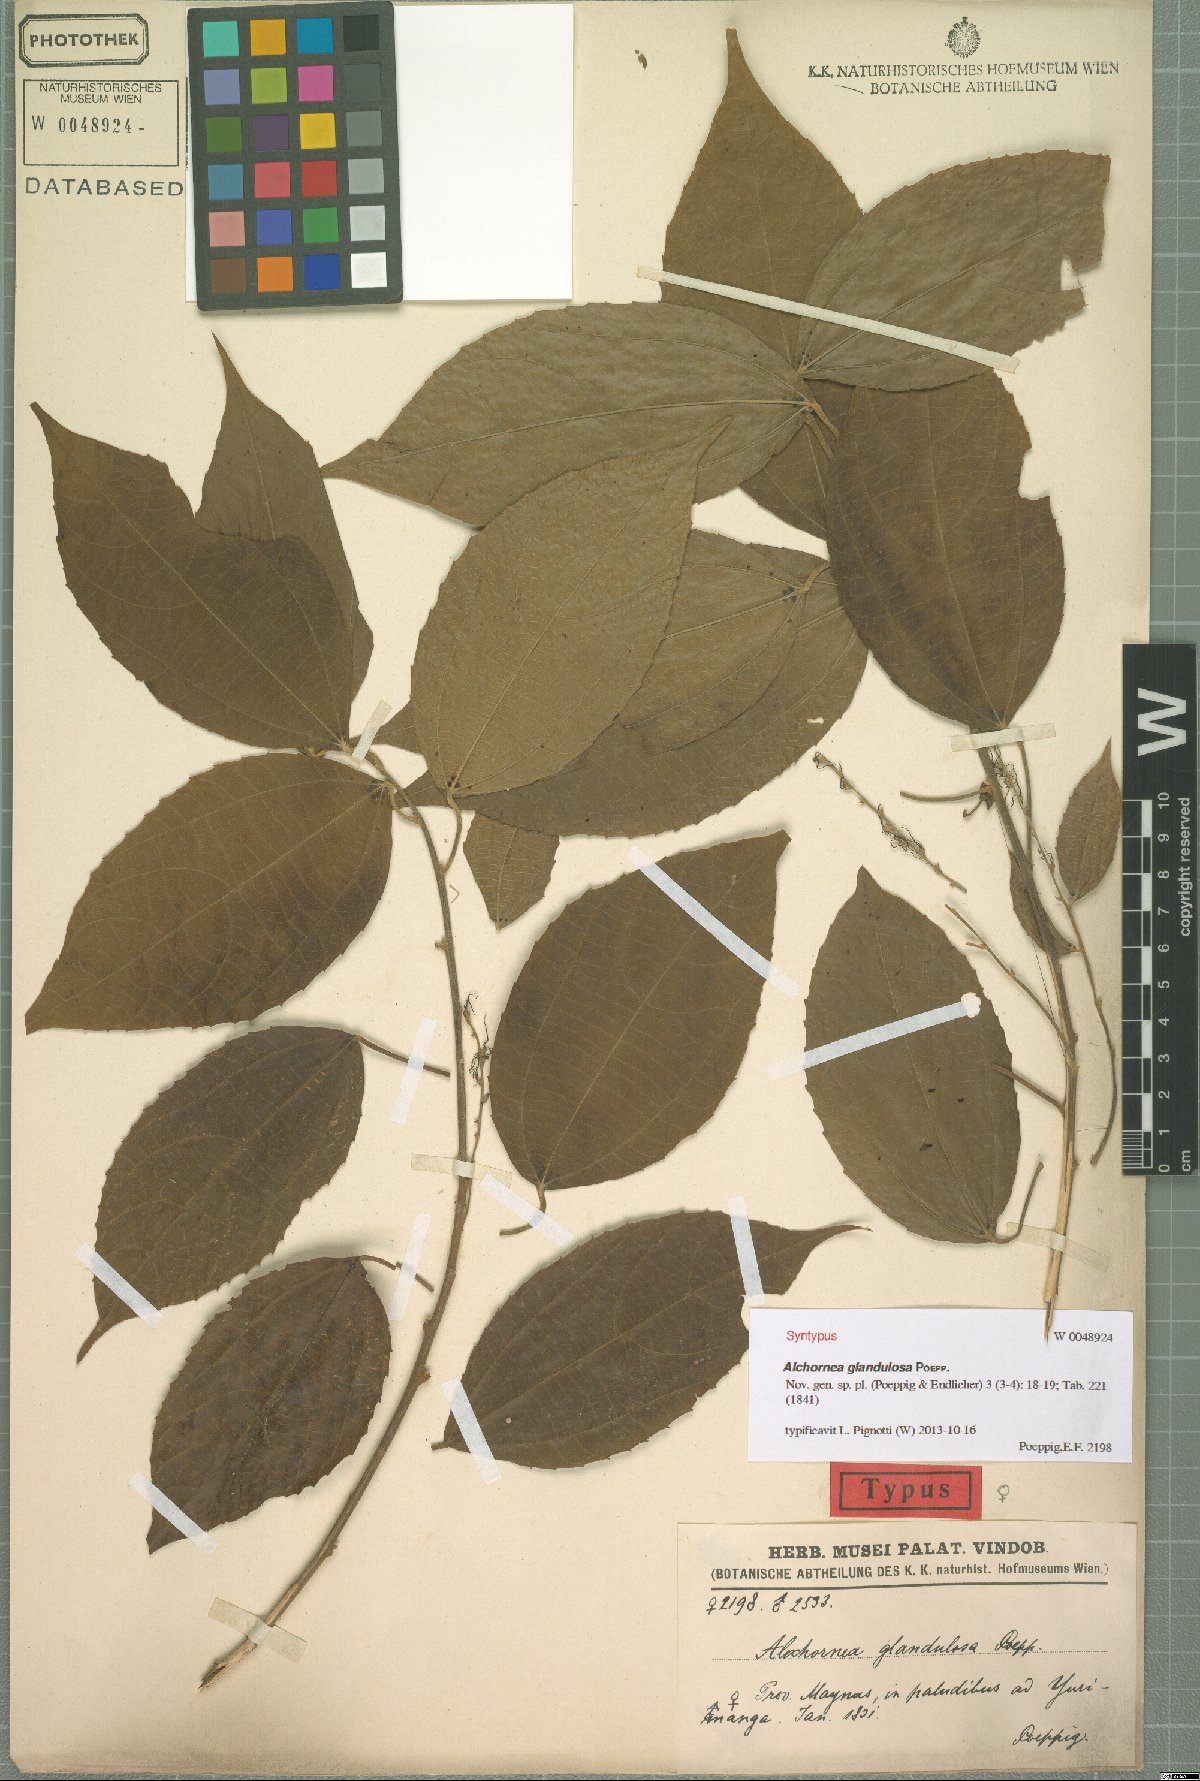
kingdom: Plantae
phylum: Tracheophyta
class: Magnoliopsida
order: Malpighiales
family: Euphorbiaceae
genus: Alchornea
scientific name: Alchornea glandulosa
